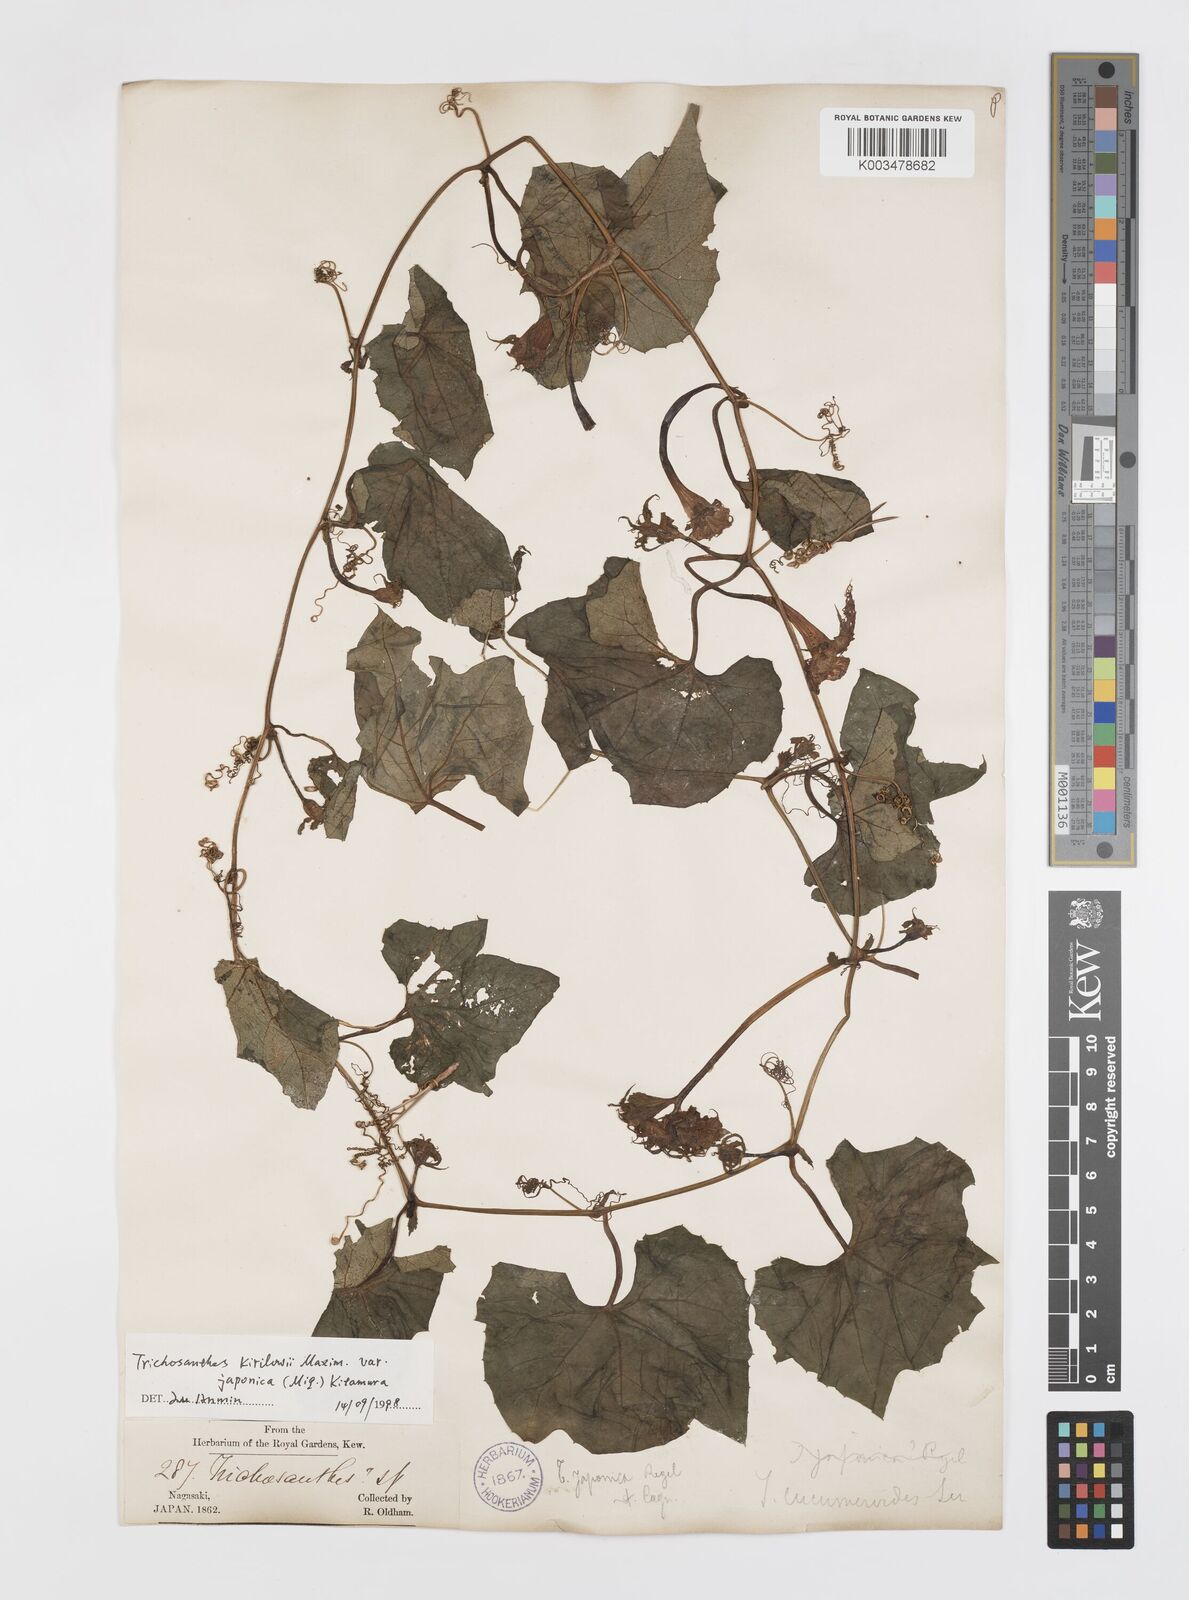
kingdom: Plantae
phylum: Tracheophyta
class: Magnoliopsida
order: Cucurbitales
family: Cucurbitaceae
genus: Trichosanthes
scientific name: Trichosanthes kirilowii
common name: Chinese-cucumber
